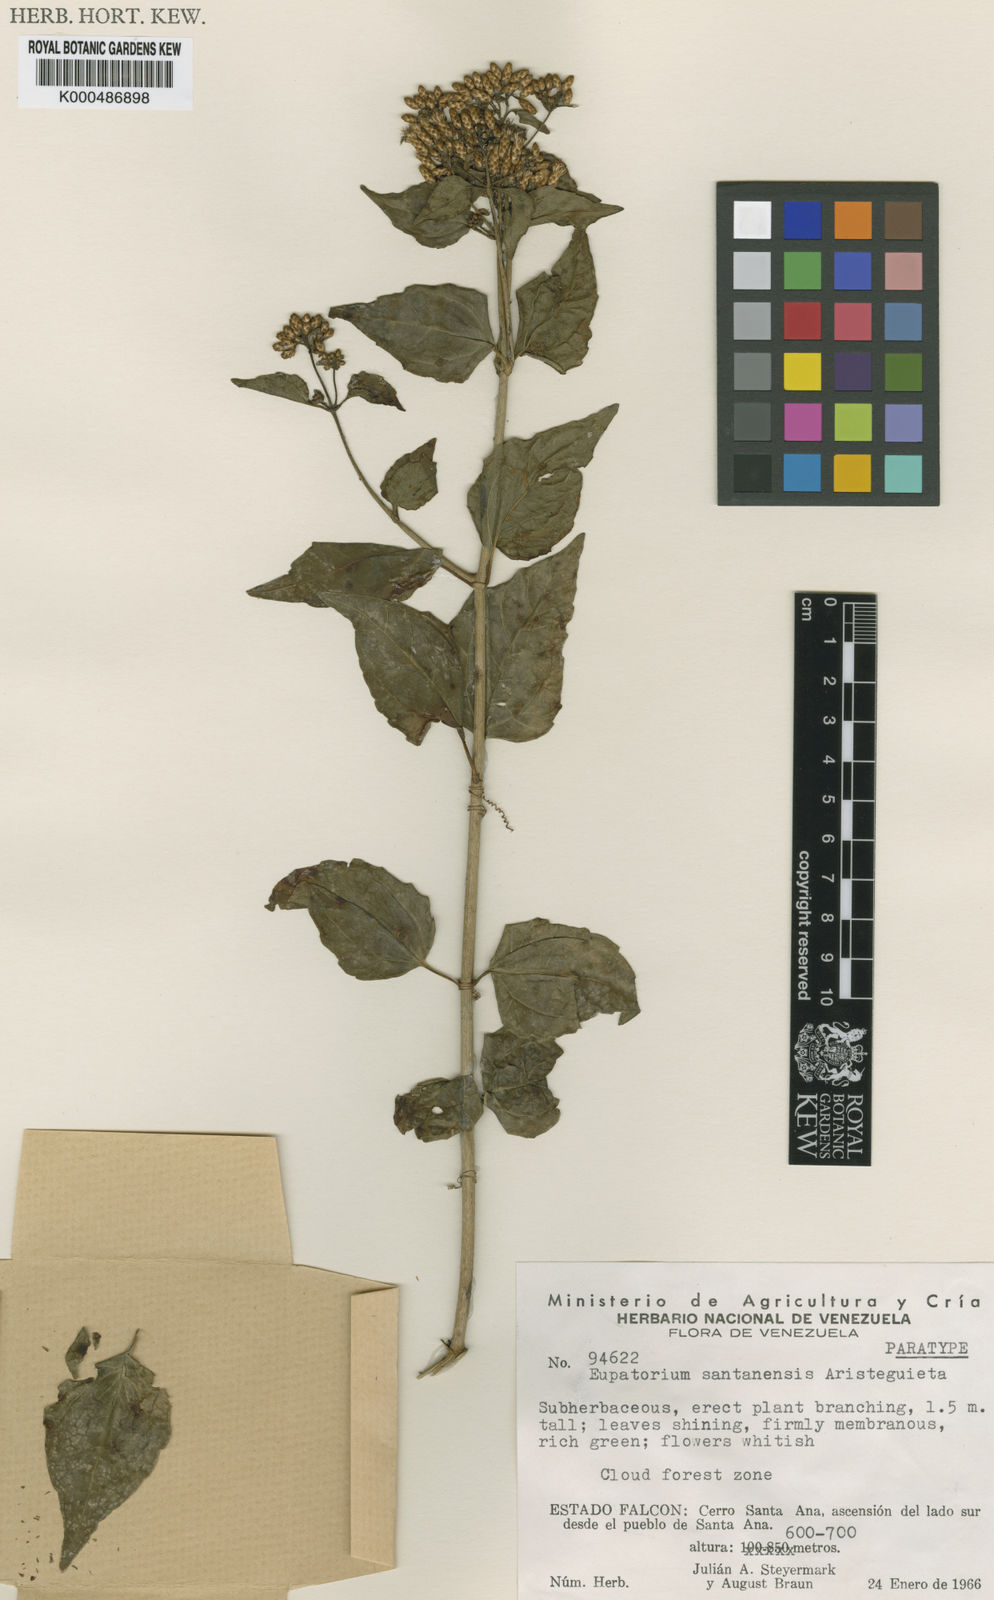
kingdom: Plantae
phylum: Tracheophyta
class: Magnoliopsida
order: Asterales
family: Asteraceae
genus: Chromolaena
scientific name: Chromolaena santanensis
